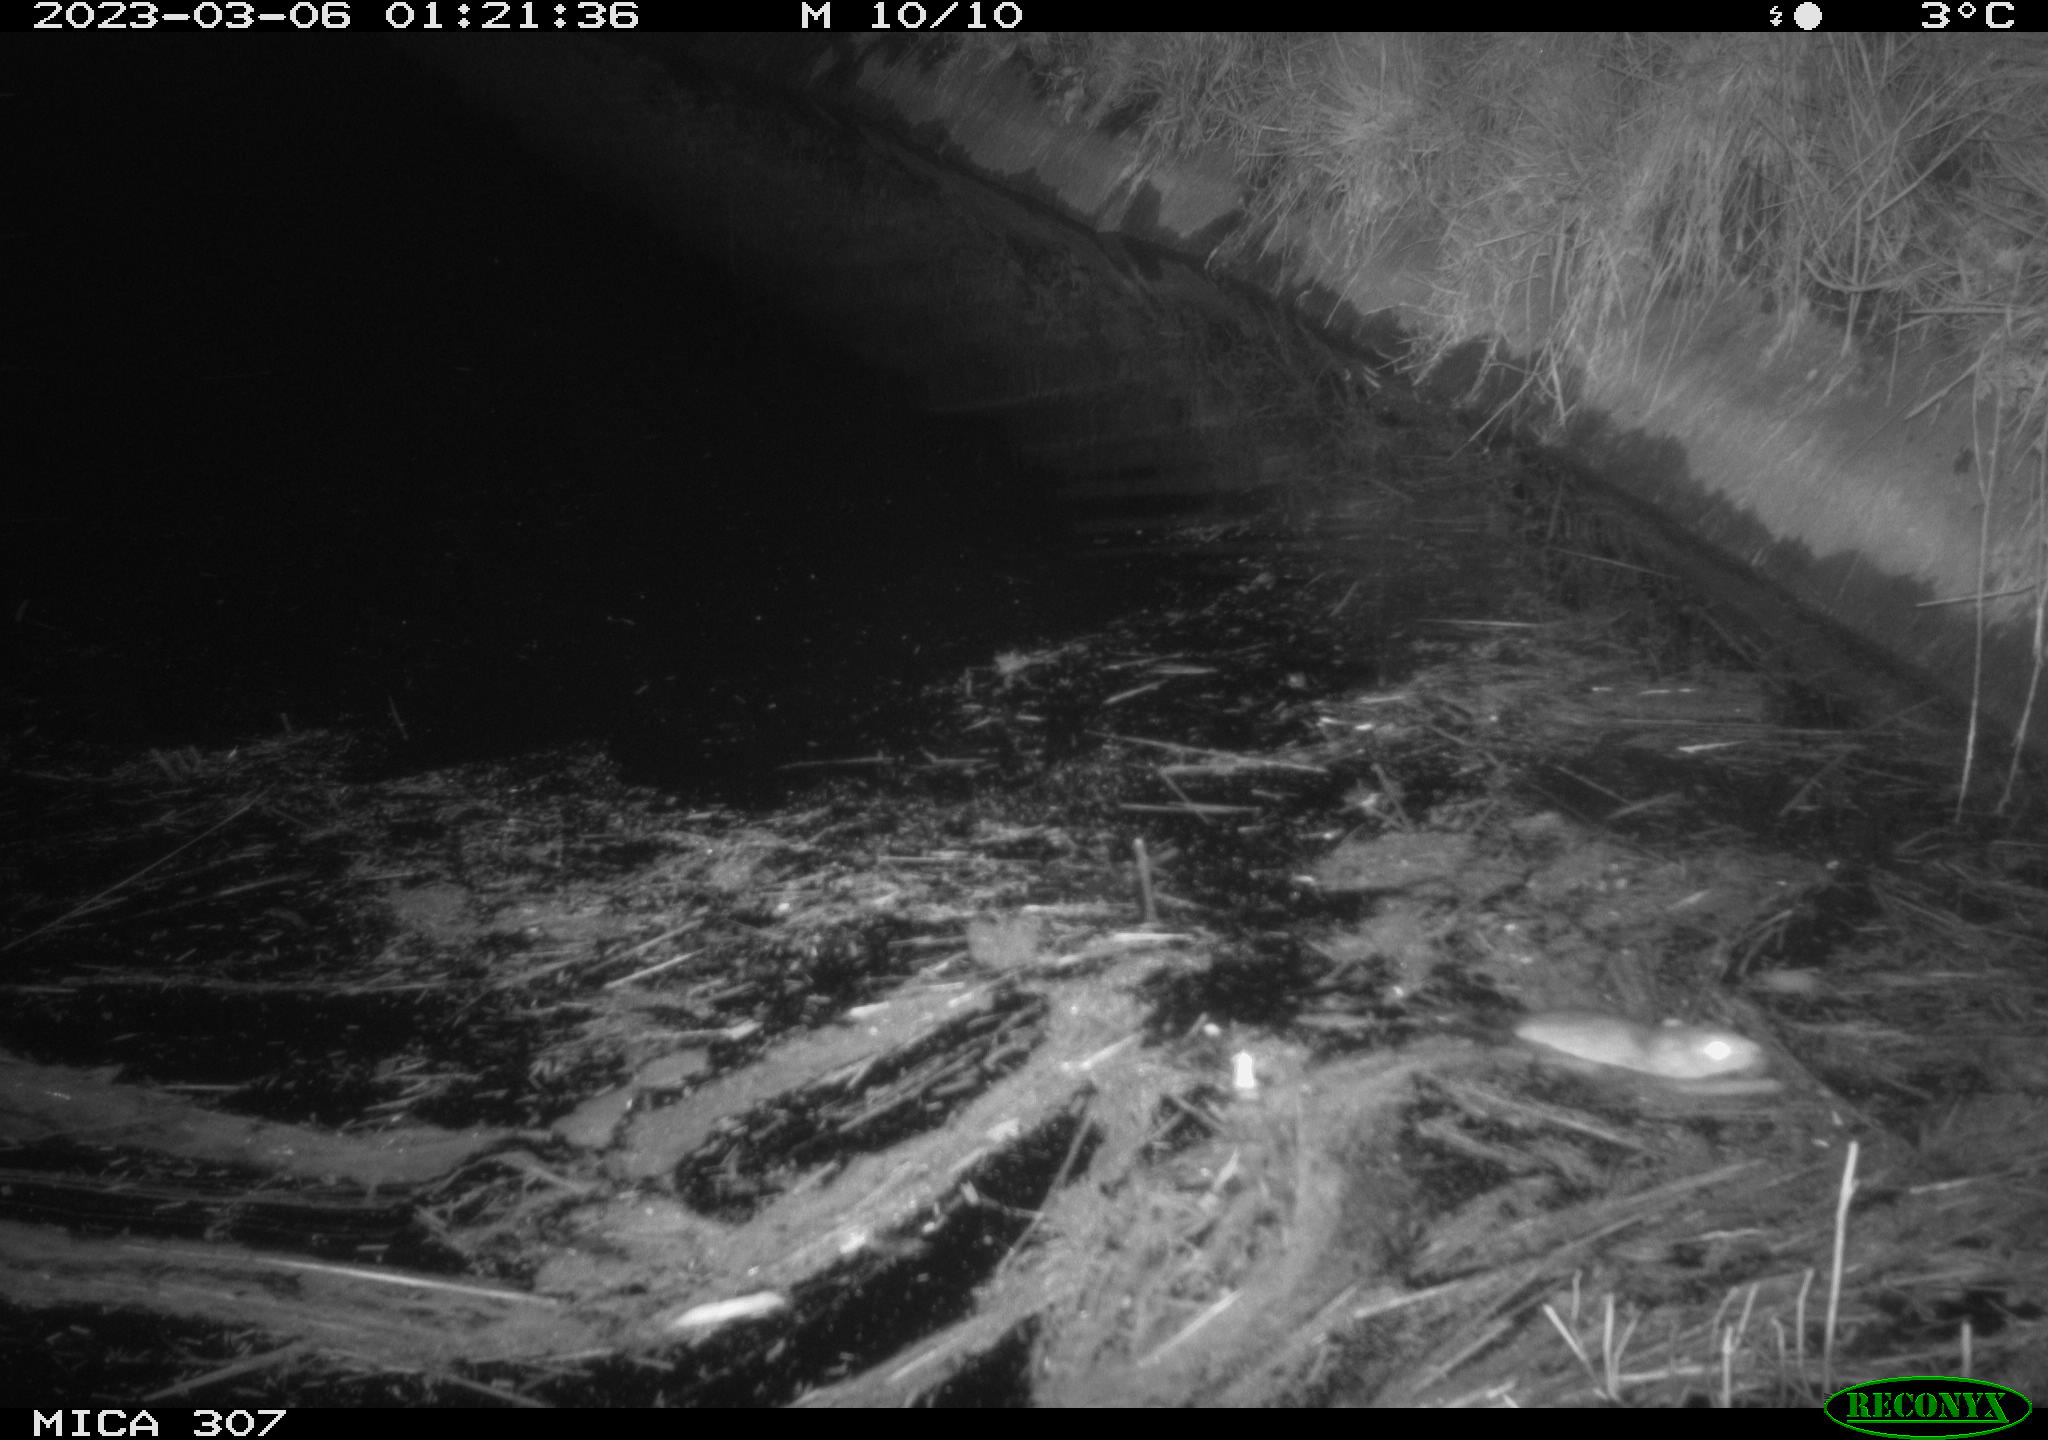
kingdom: Animalia
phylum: Chordata
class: Mammalia
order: Rodentia
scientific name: Rodentia
